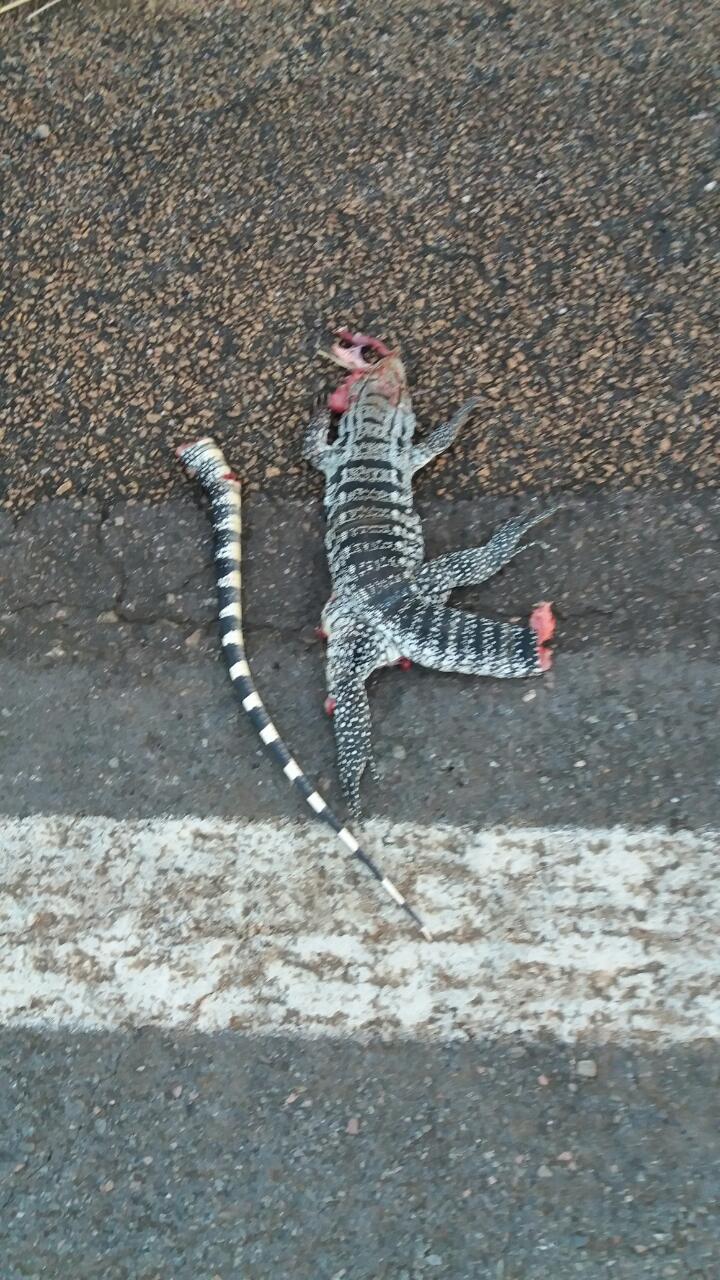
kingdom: Animalia
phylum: Chordata
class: Squamata
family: Teiidae
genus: Salvator
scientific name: Salvator
